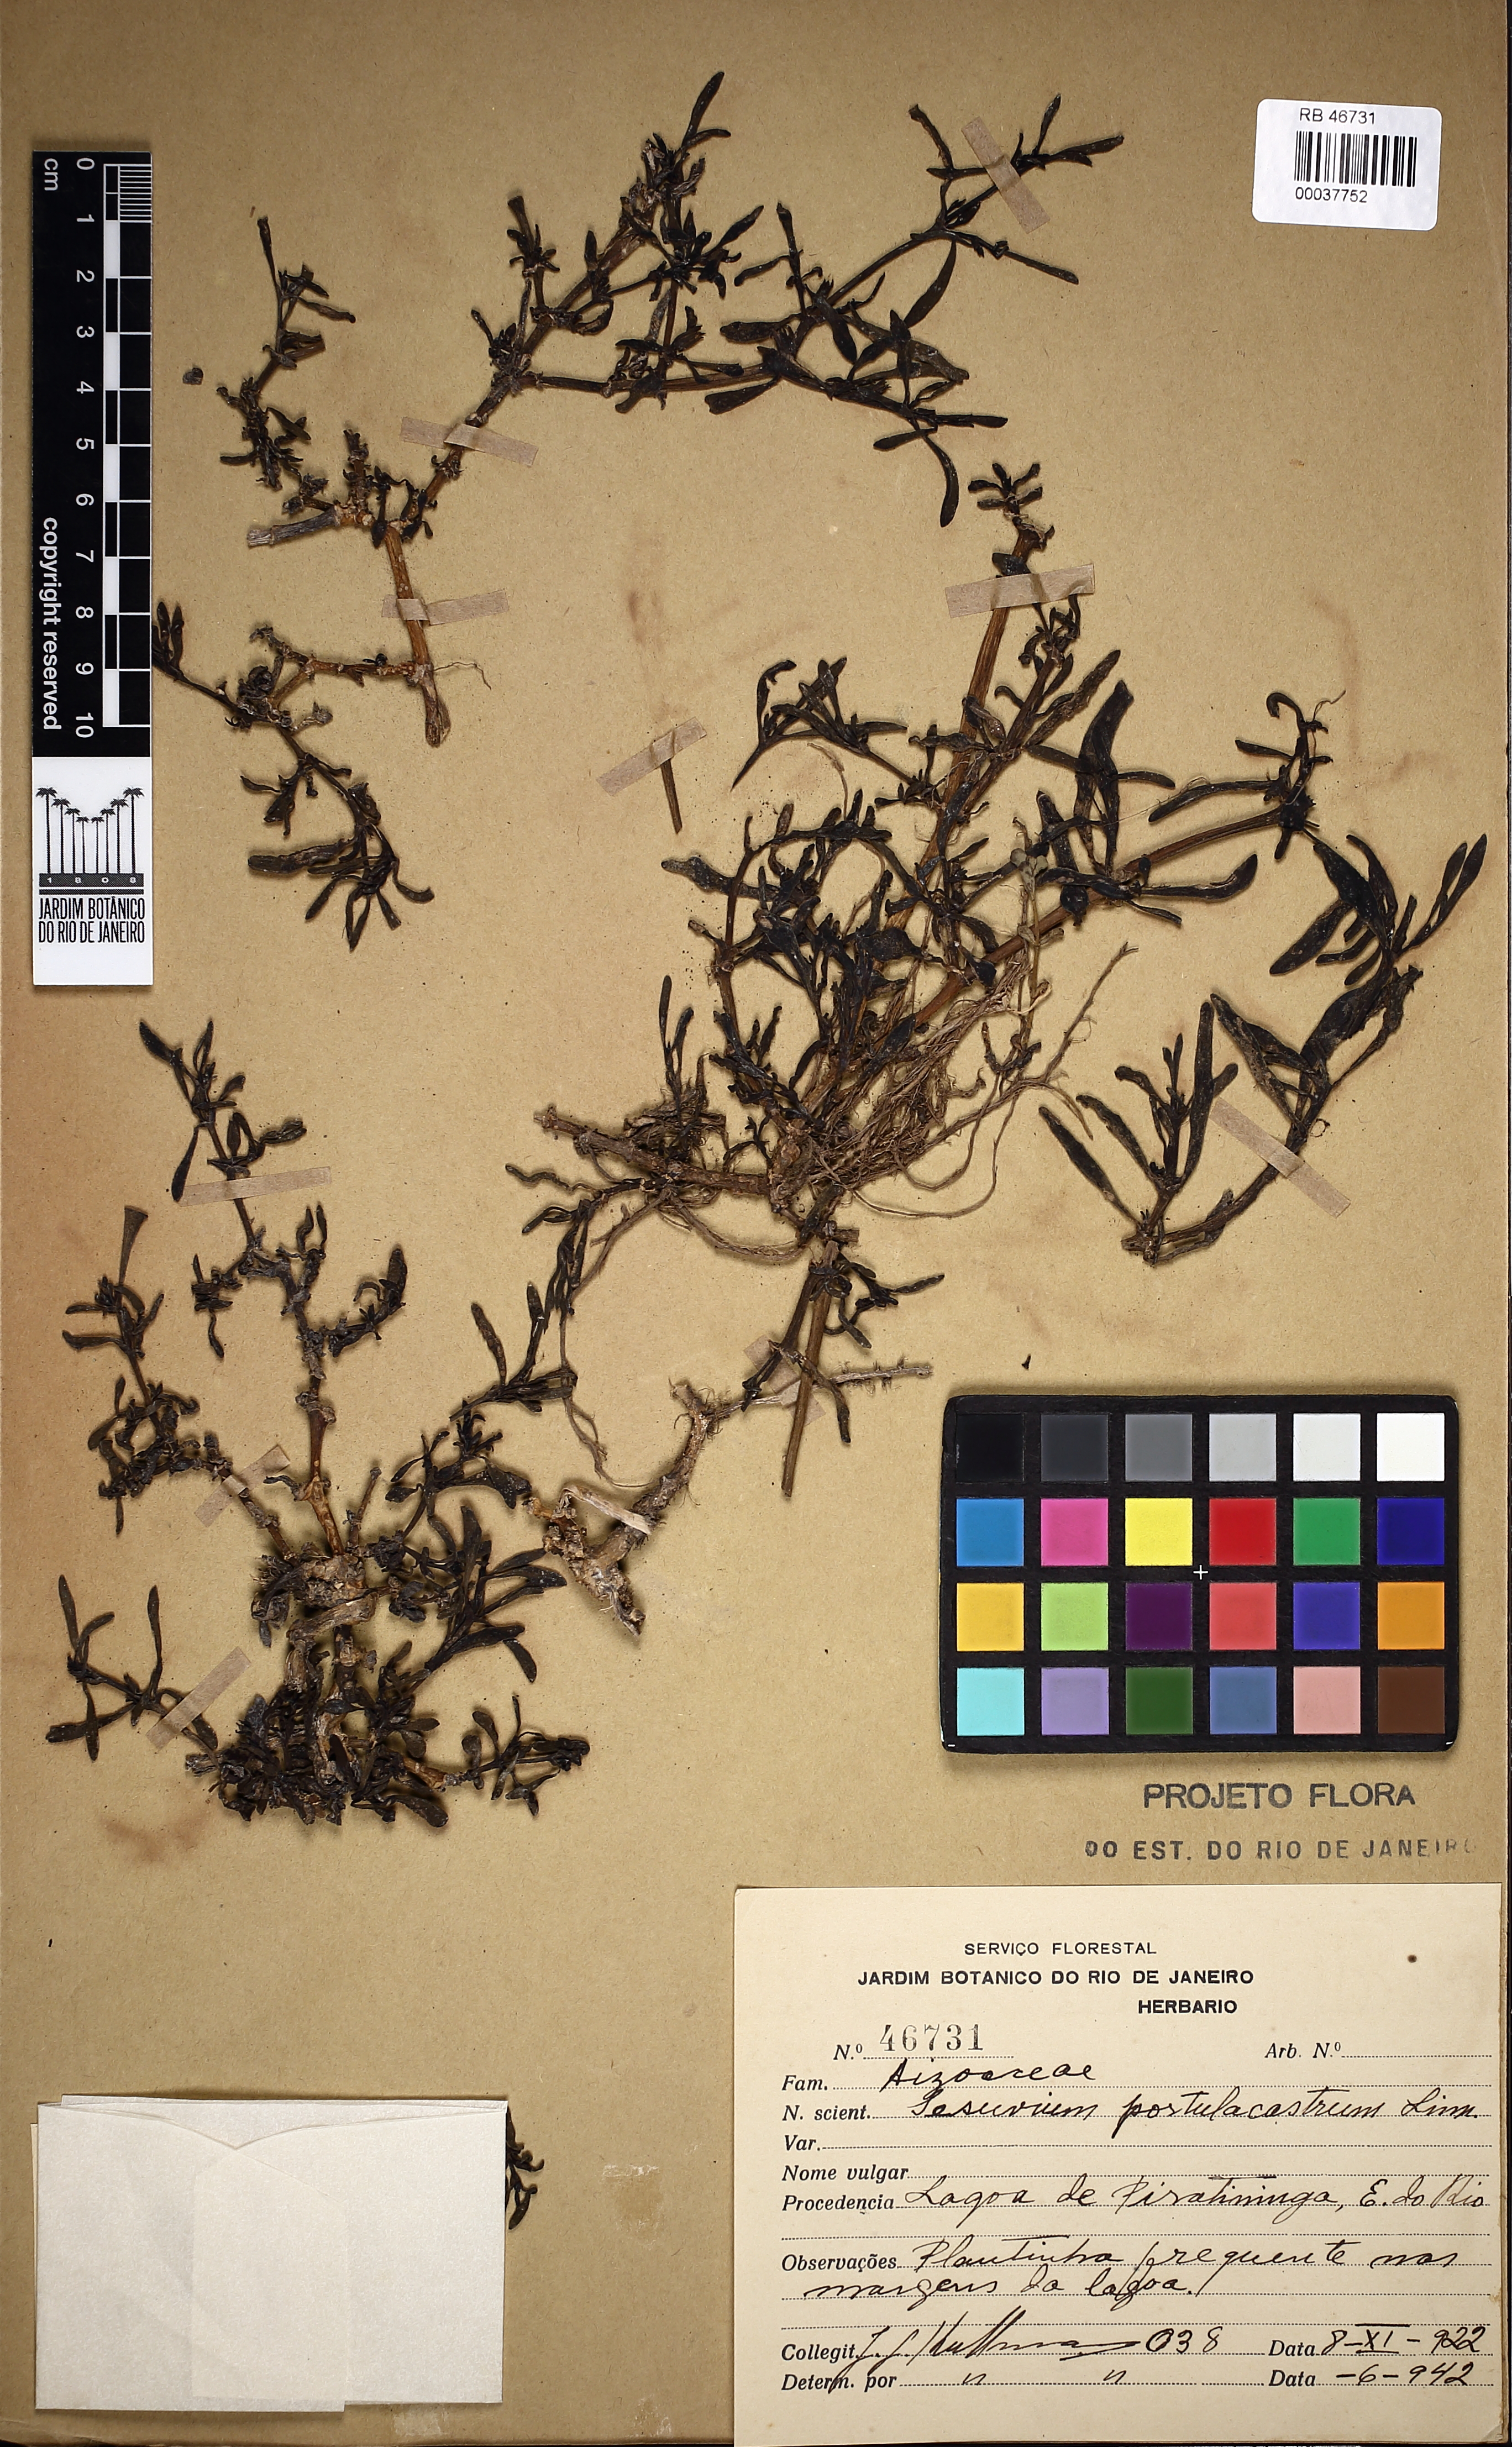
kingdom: Plantae
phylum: Tracheophyta
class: Magnoliopsida
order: Caryophyllales
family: Aizoaceae
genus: Sesuvium
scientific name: Sesuvium
